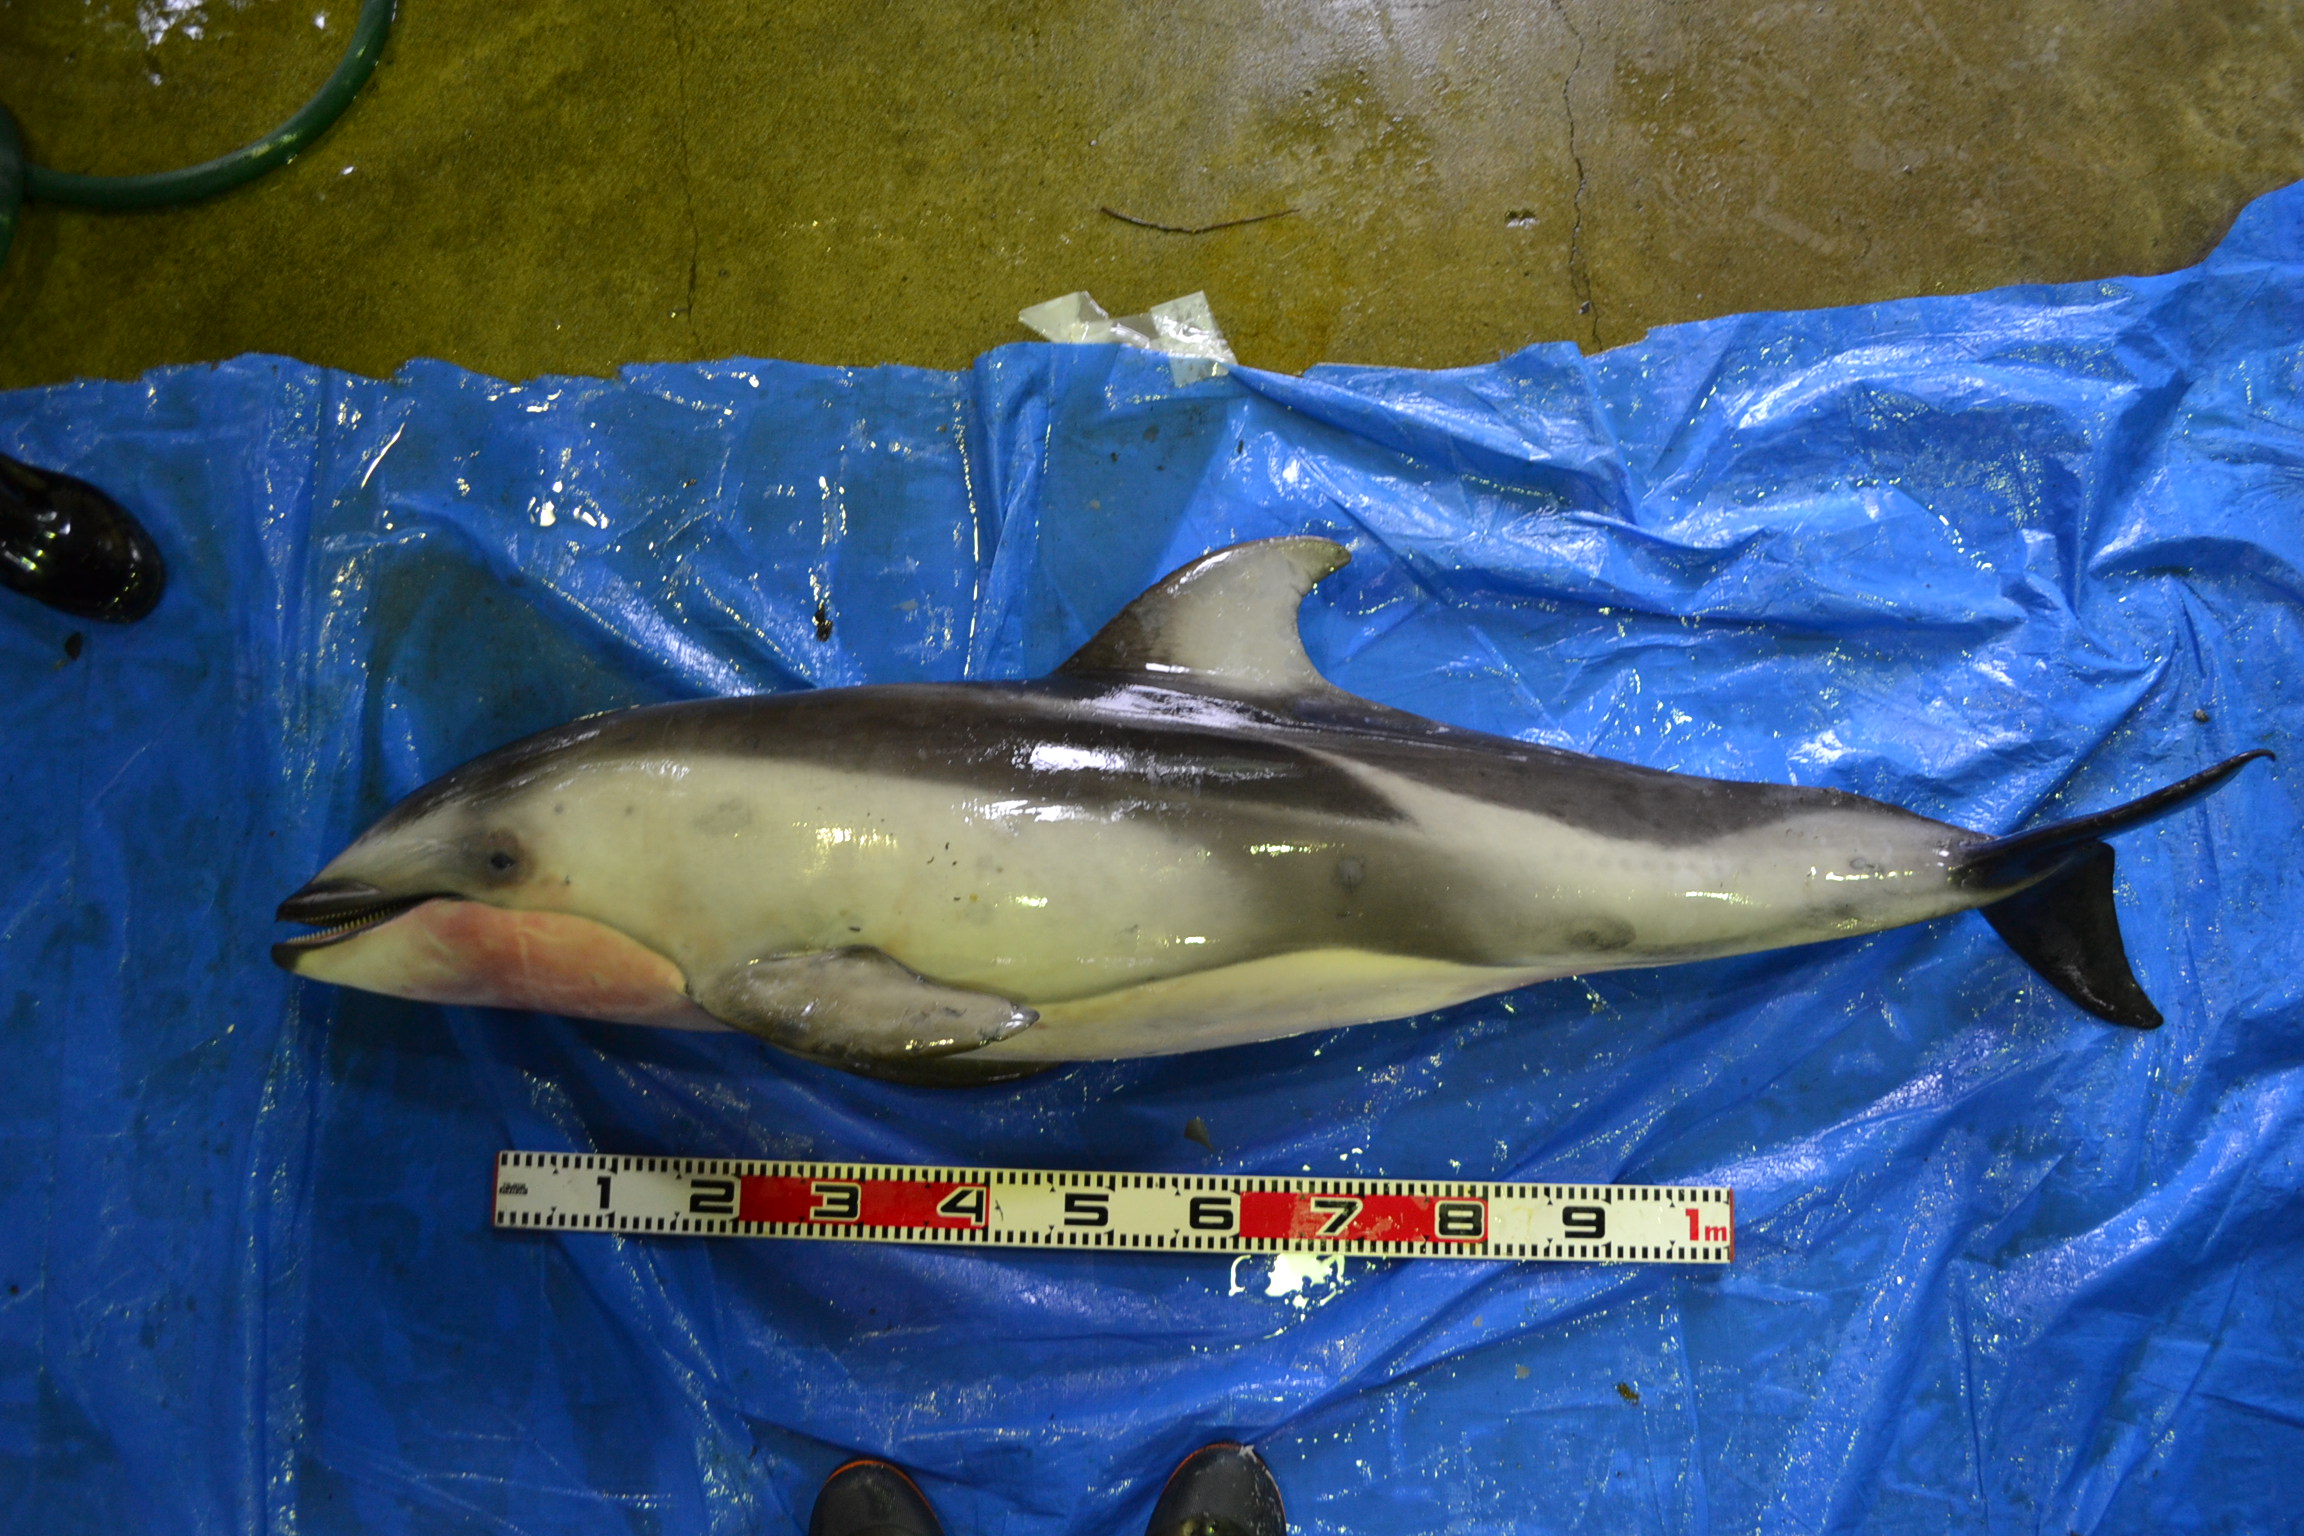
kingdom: Animalia
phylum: Chordata
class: Mammalia
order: Cetacea
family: Delphinidae
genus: Lagenorhynchus
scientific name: Lagenorhynchus obliquidens
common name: Pacific white-sided dolphin
